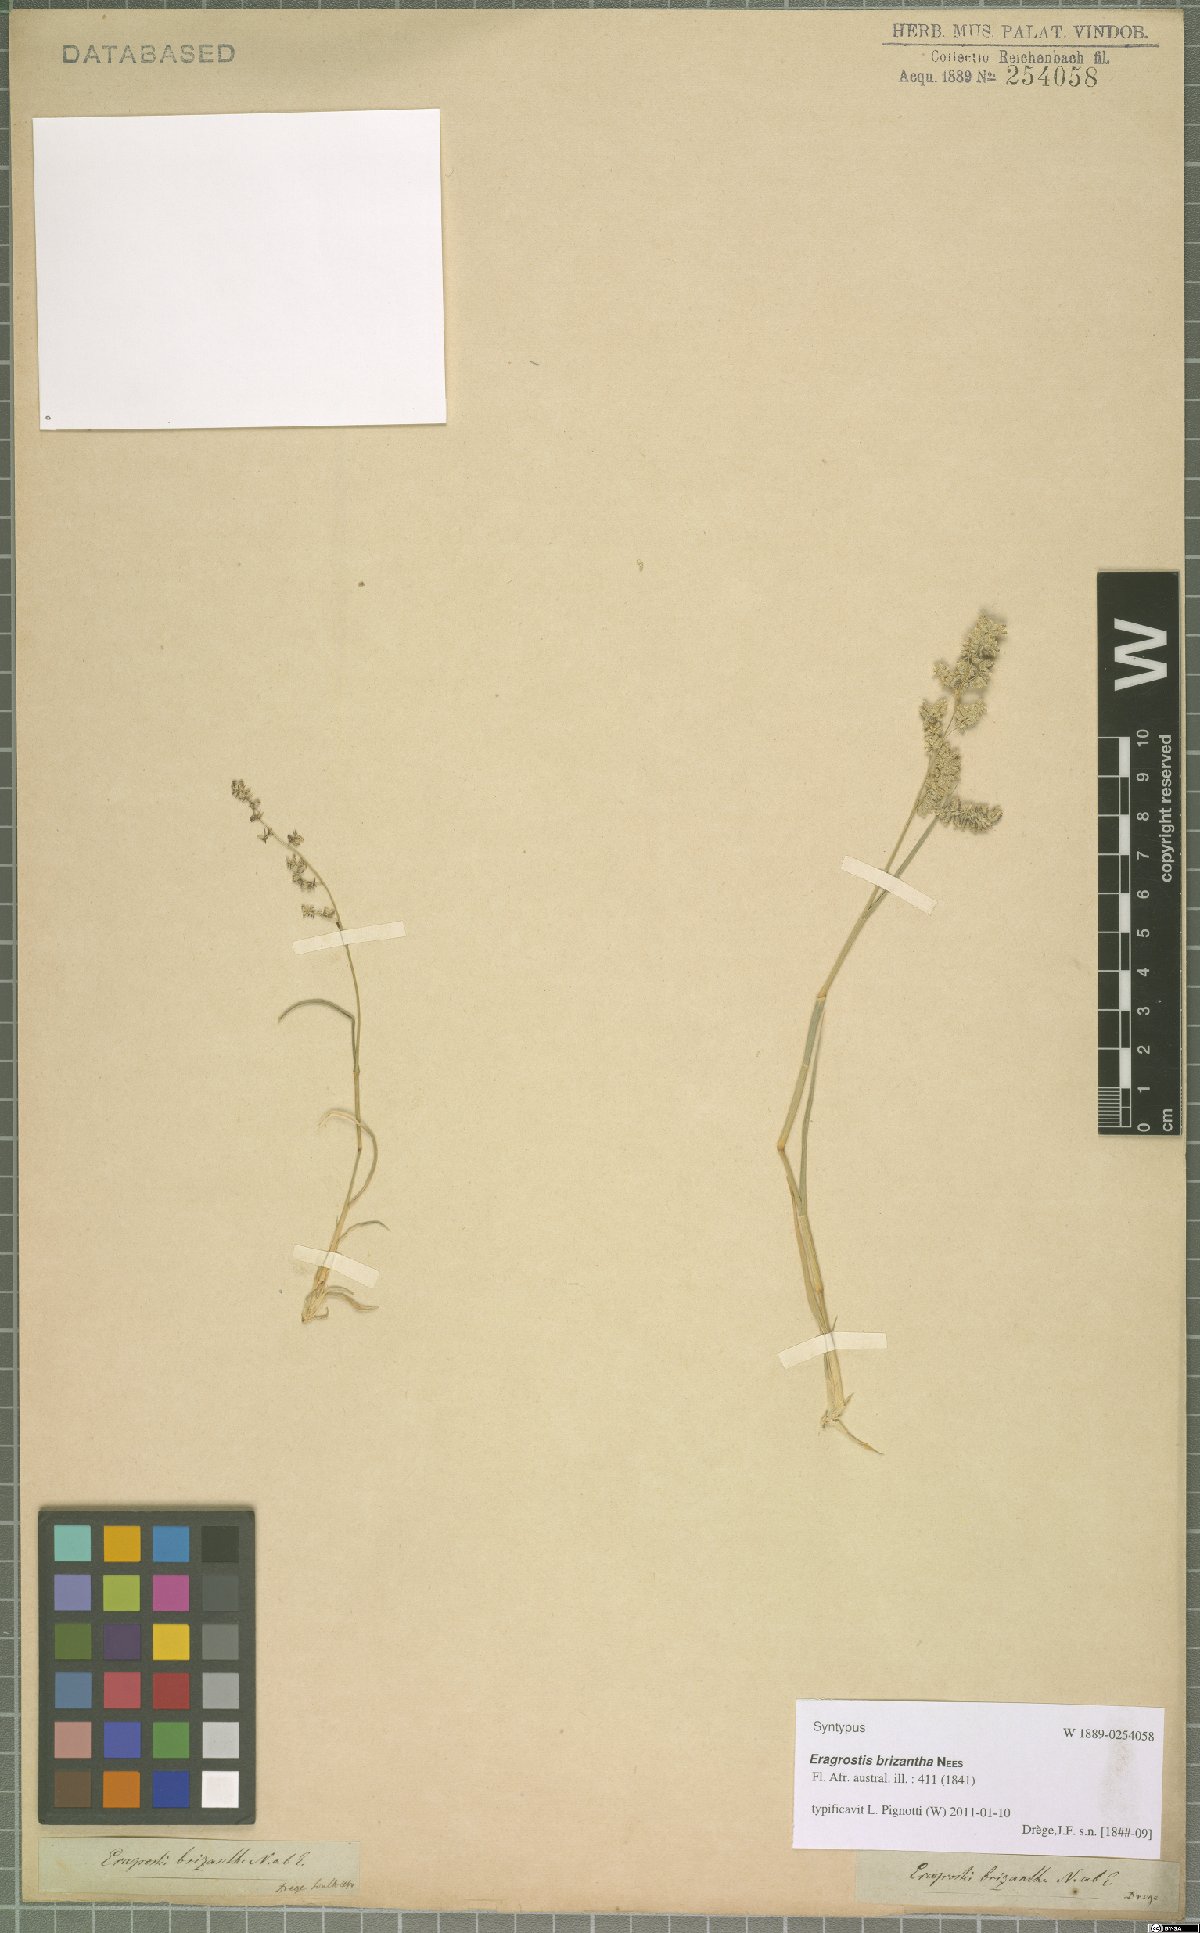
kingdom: Plantae
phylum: Tracheophyta
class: Liliopsida
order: Poales
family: Poaceae
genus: Eragrostis
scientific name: Eragrostis brizantha
